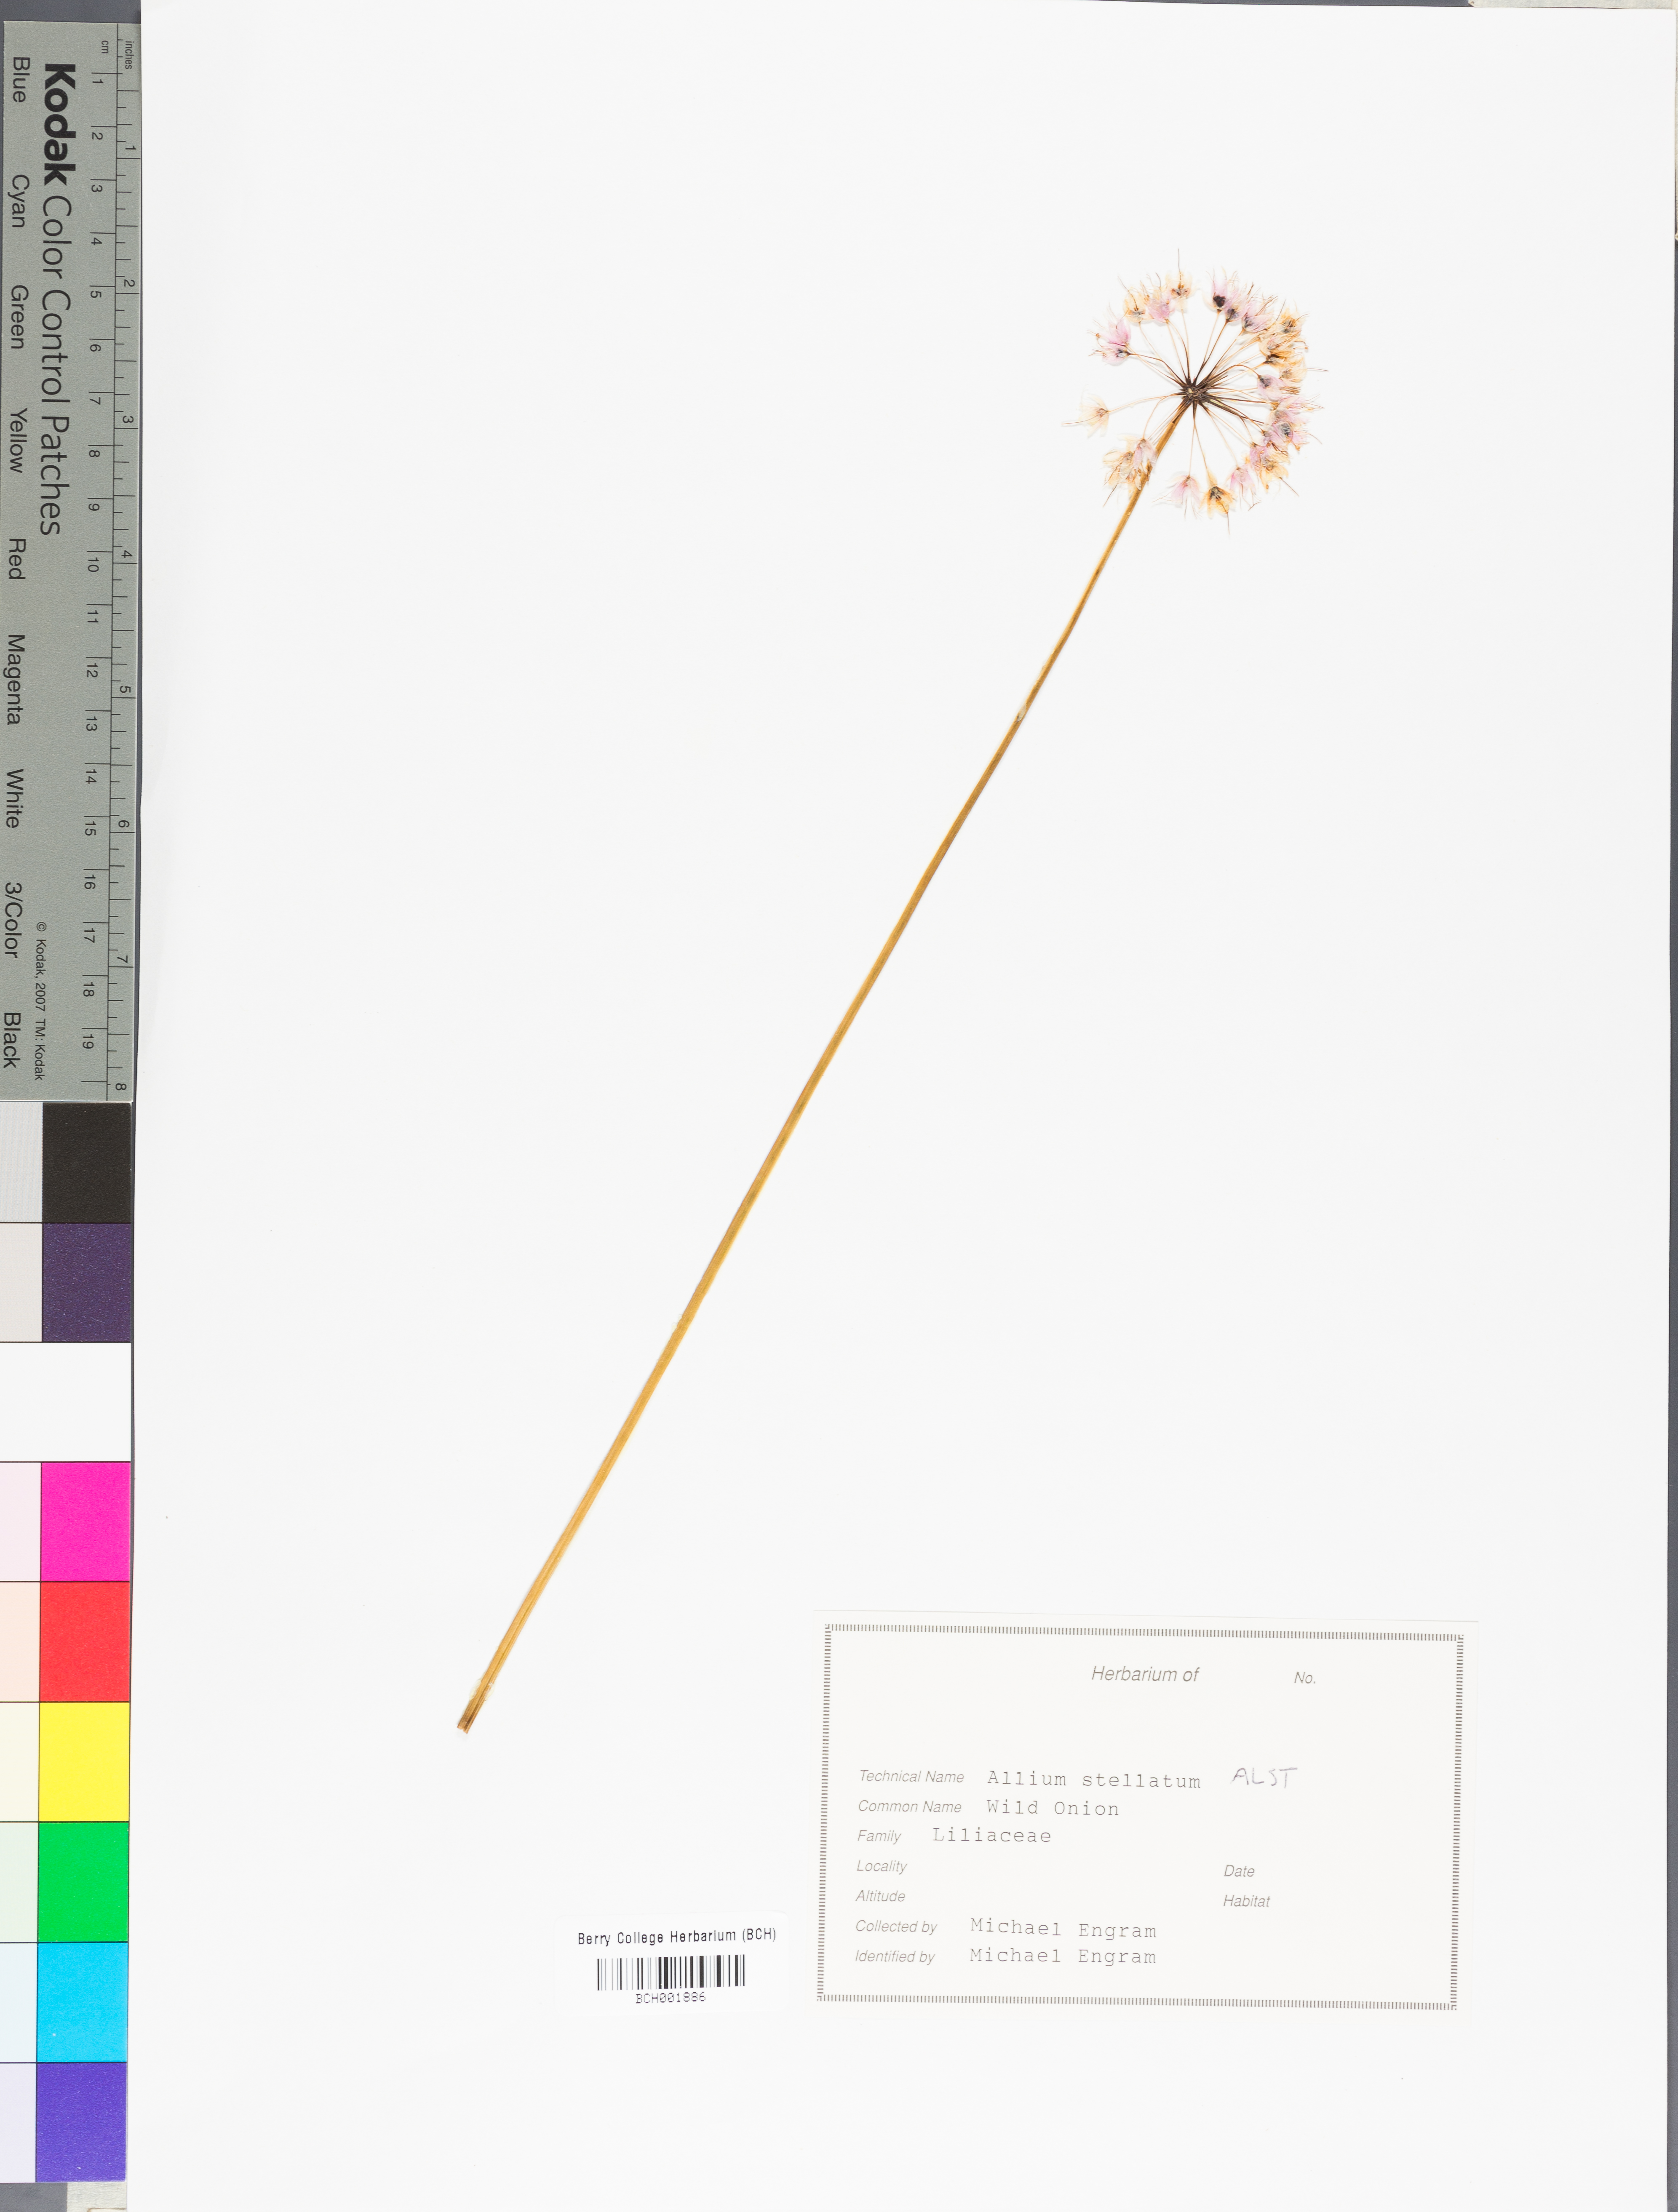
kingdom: Plantae
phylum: Tracheophyta
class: Liliopsida
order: Asparagales
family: Amaryllidaceae
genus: Allium
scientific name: Allium stellatum
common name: Autumn onion
